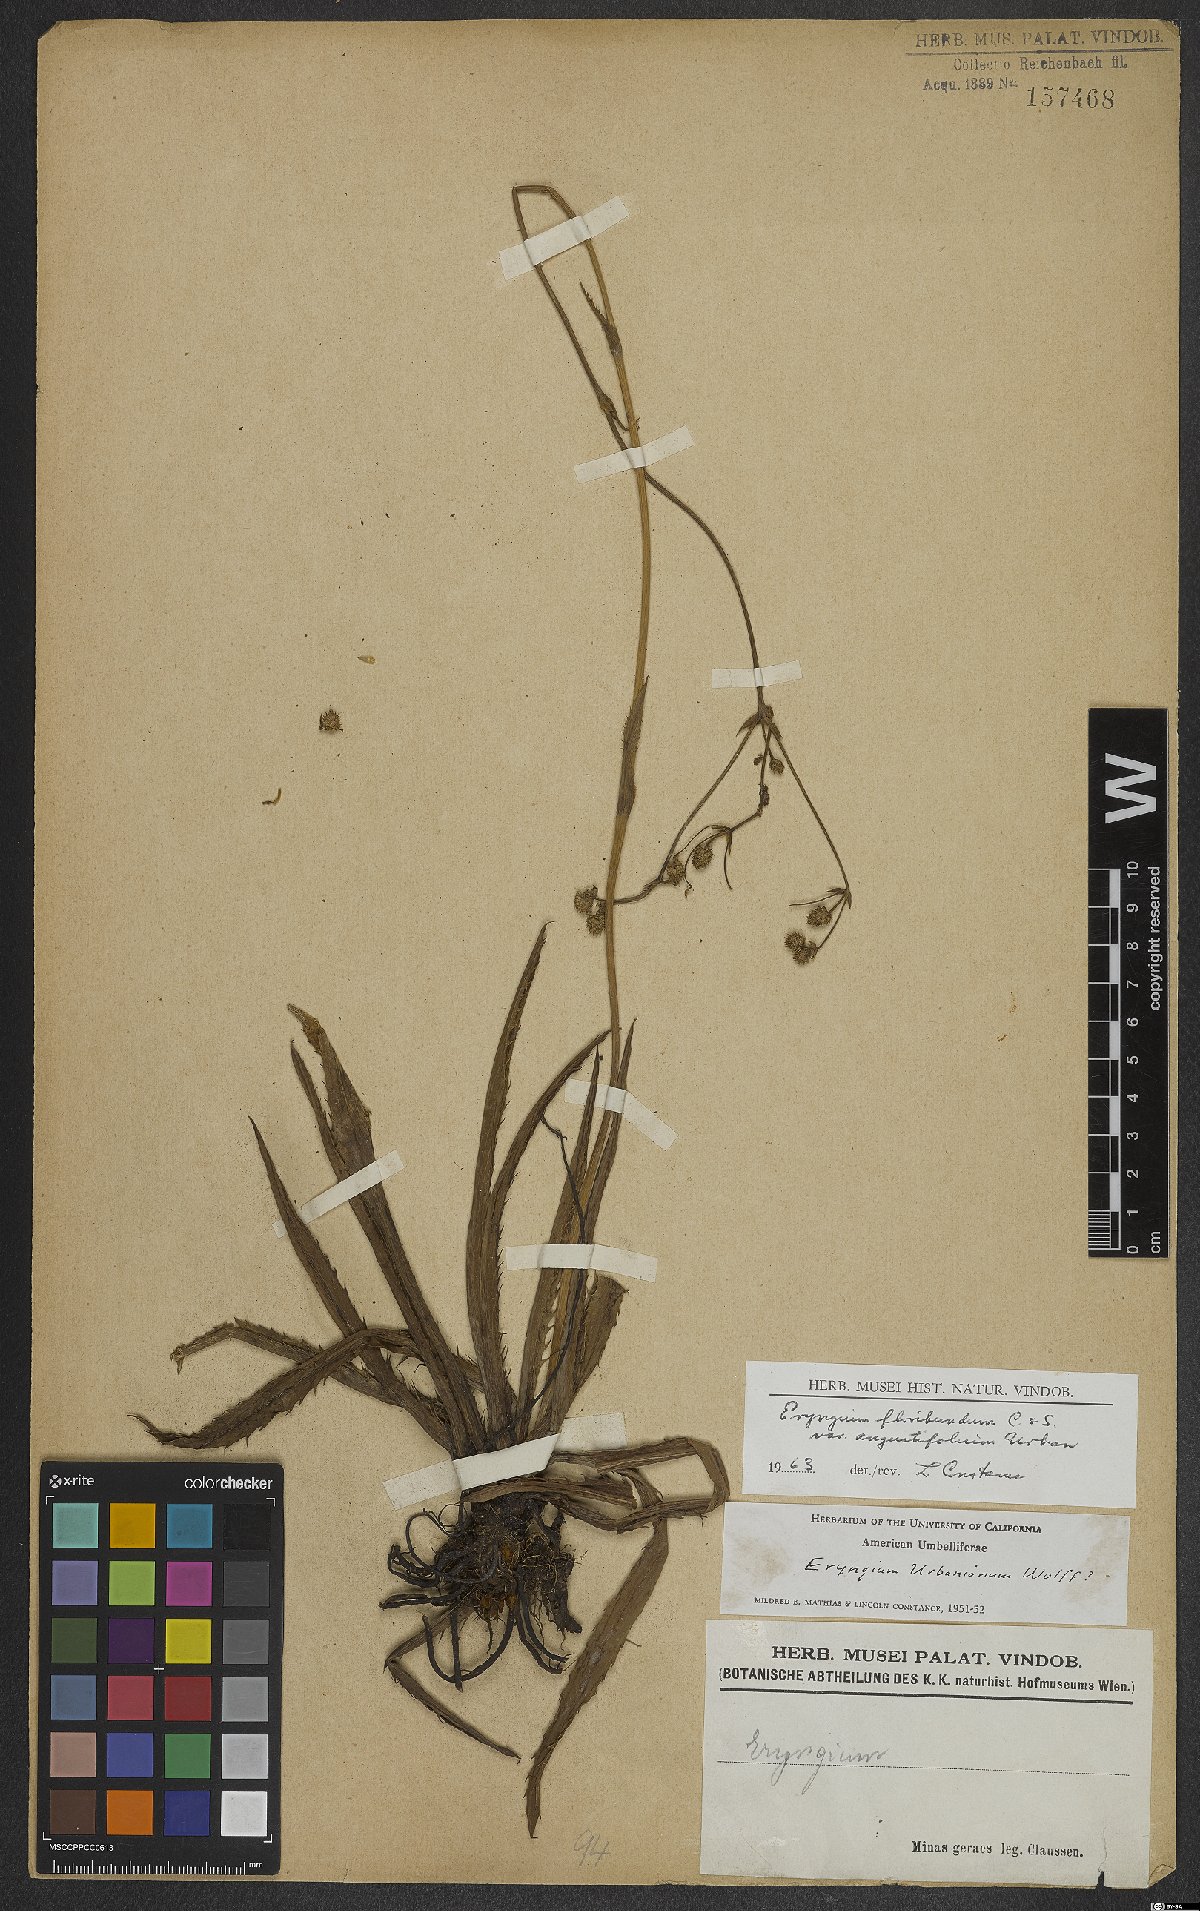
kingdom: Plantae
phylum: Tracheophyta
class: Magnoliopsida
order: Apiales
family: Apiaceae
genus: Eryngium
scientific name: Eryngium floribundum
